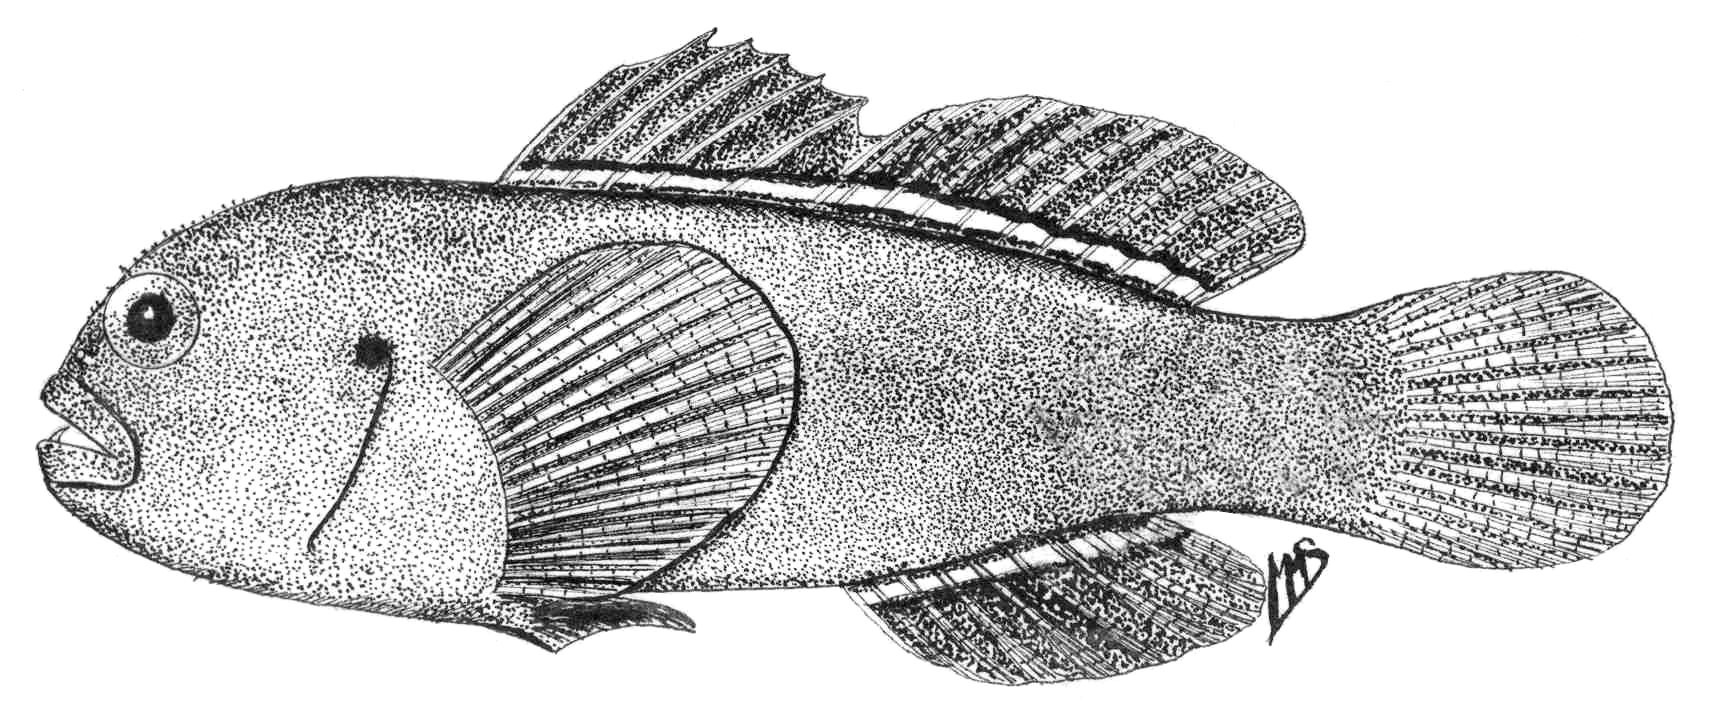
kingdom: Animalia
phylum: Chordata
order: Perciformes
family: Gobiidae
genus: Gobiodon
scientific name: Gobiodon rivulatus
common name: Rippled coralgoby
